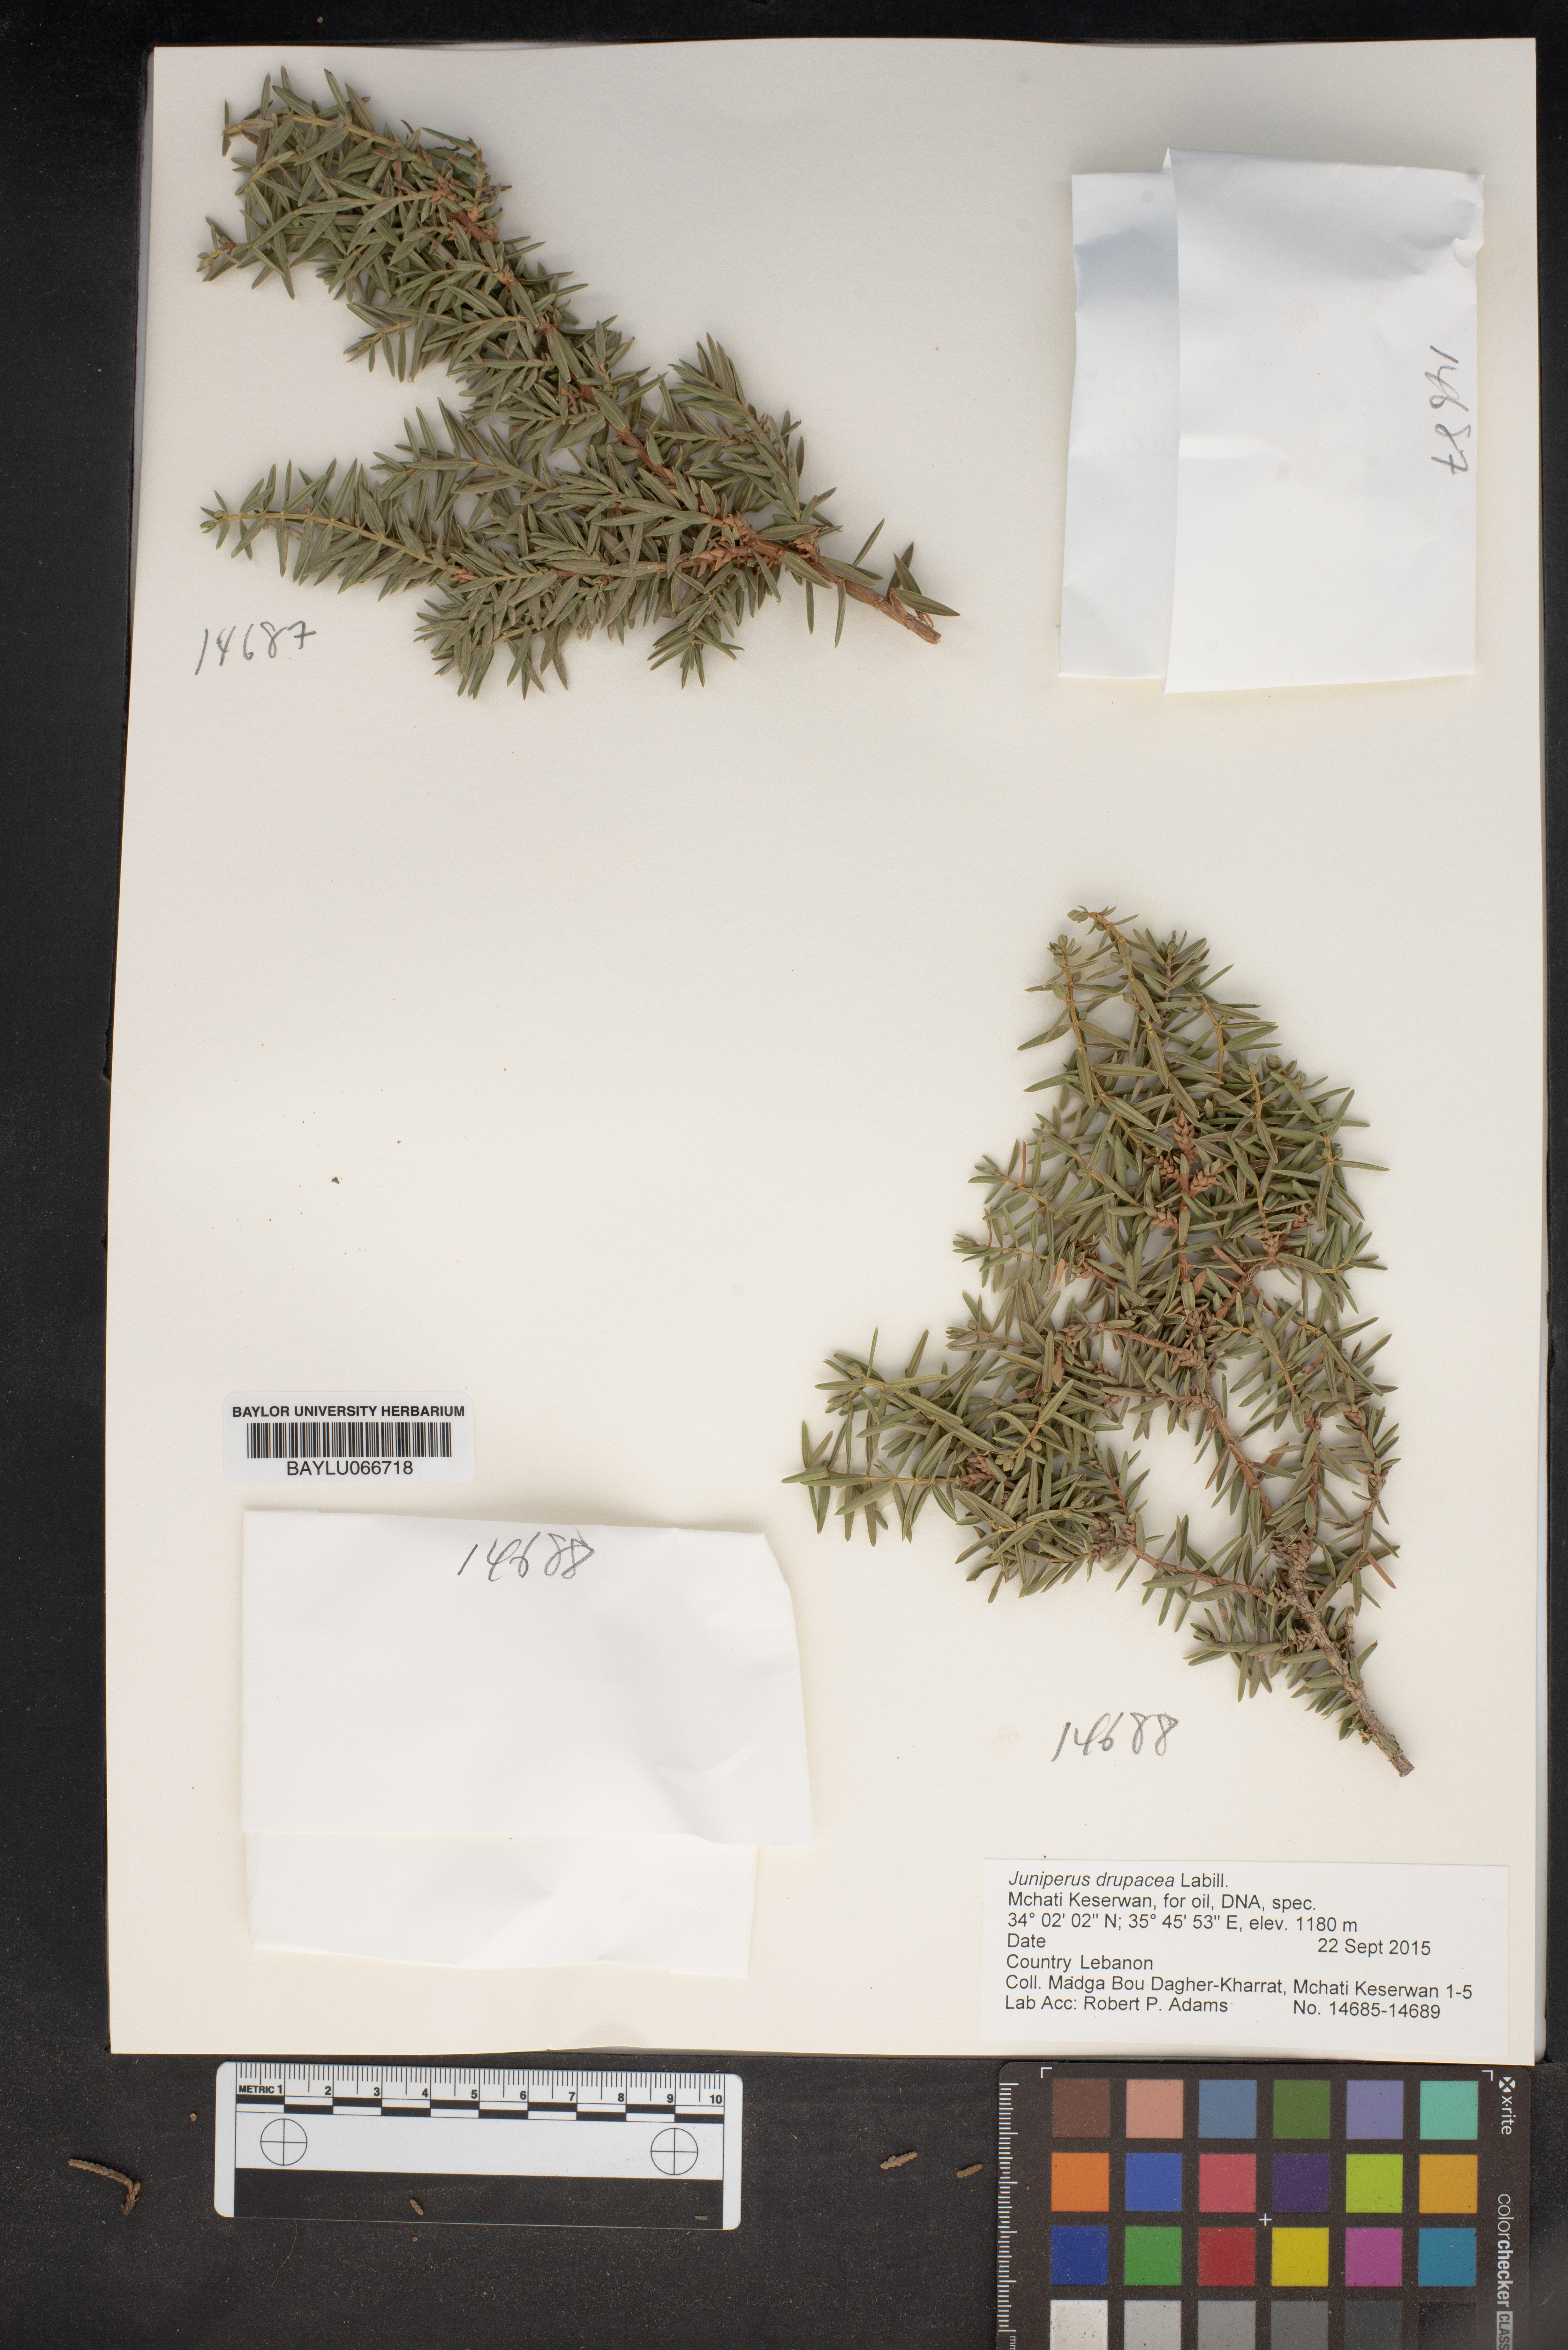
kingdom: Plantae
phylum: Tracheophyta
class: Pinopsida
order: Pinales
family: Cupressaceae
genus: Juniperus
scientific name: Juniperus drupacea
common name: Syrian juniper
